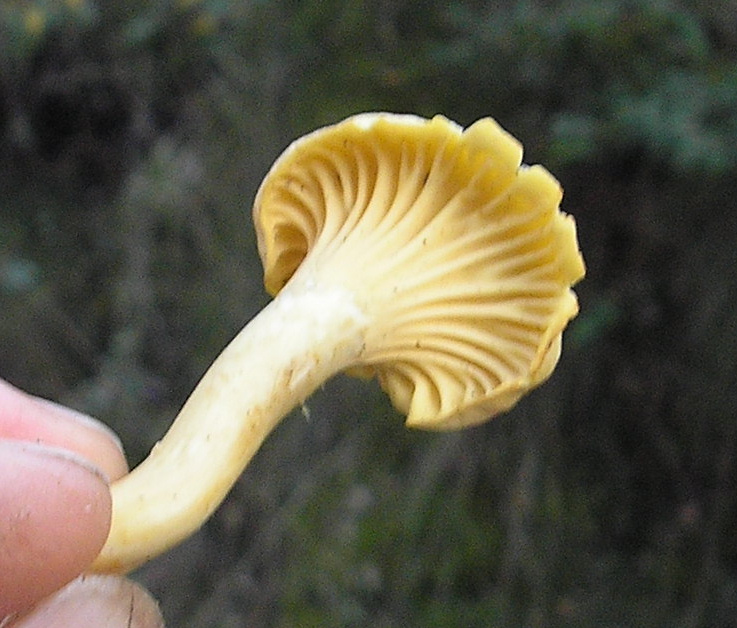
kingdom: Fungi
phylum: Basidiomycota
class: Agaricomycetes
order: Cantharellales
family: Hydnaceae
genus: Cantharellus
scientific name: Cantharellus amethysteus
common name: ametyst-kantarel
